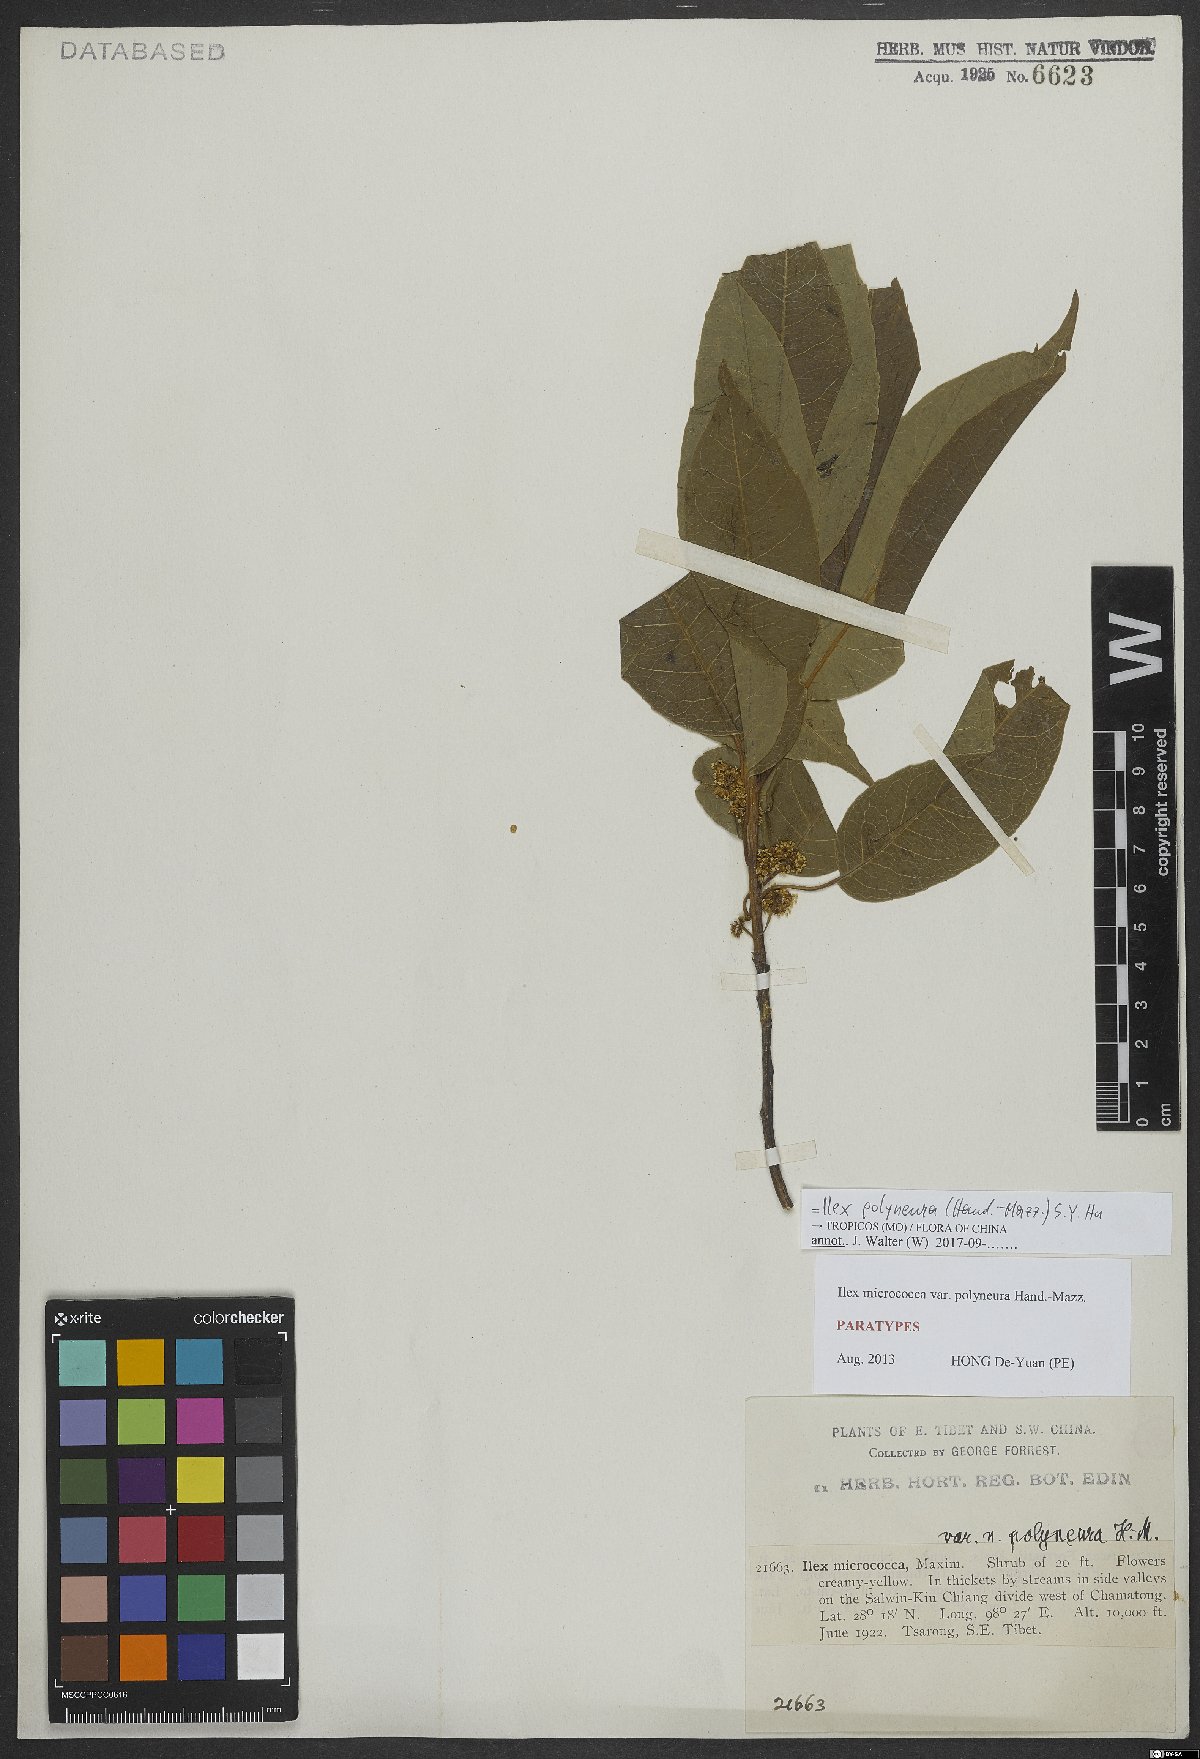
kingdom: Plantae
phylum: Tracheophyta
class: Magnoliopsida
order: Aquifoliales
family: Aquifoliaceae
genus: Ilex
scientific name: Ilex micrococca
